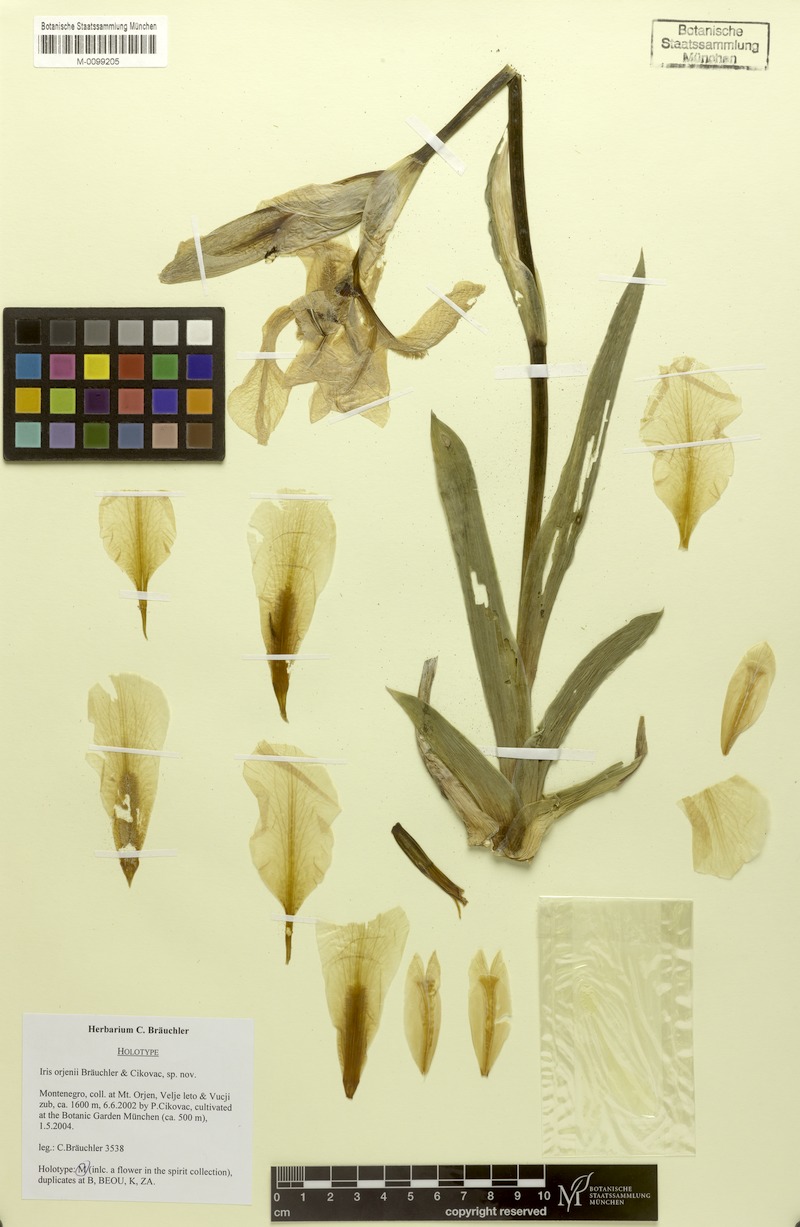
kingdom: Plantae
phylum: Tracheophyta
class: Liliopsida
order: Asparagales
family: Iridaceae
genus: Iris
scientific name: Iris orjenii
